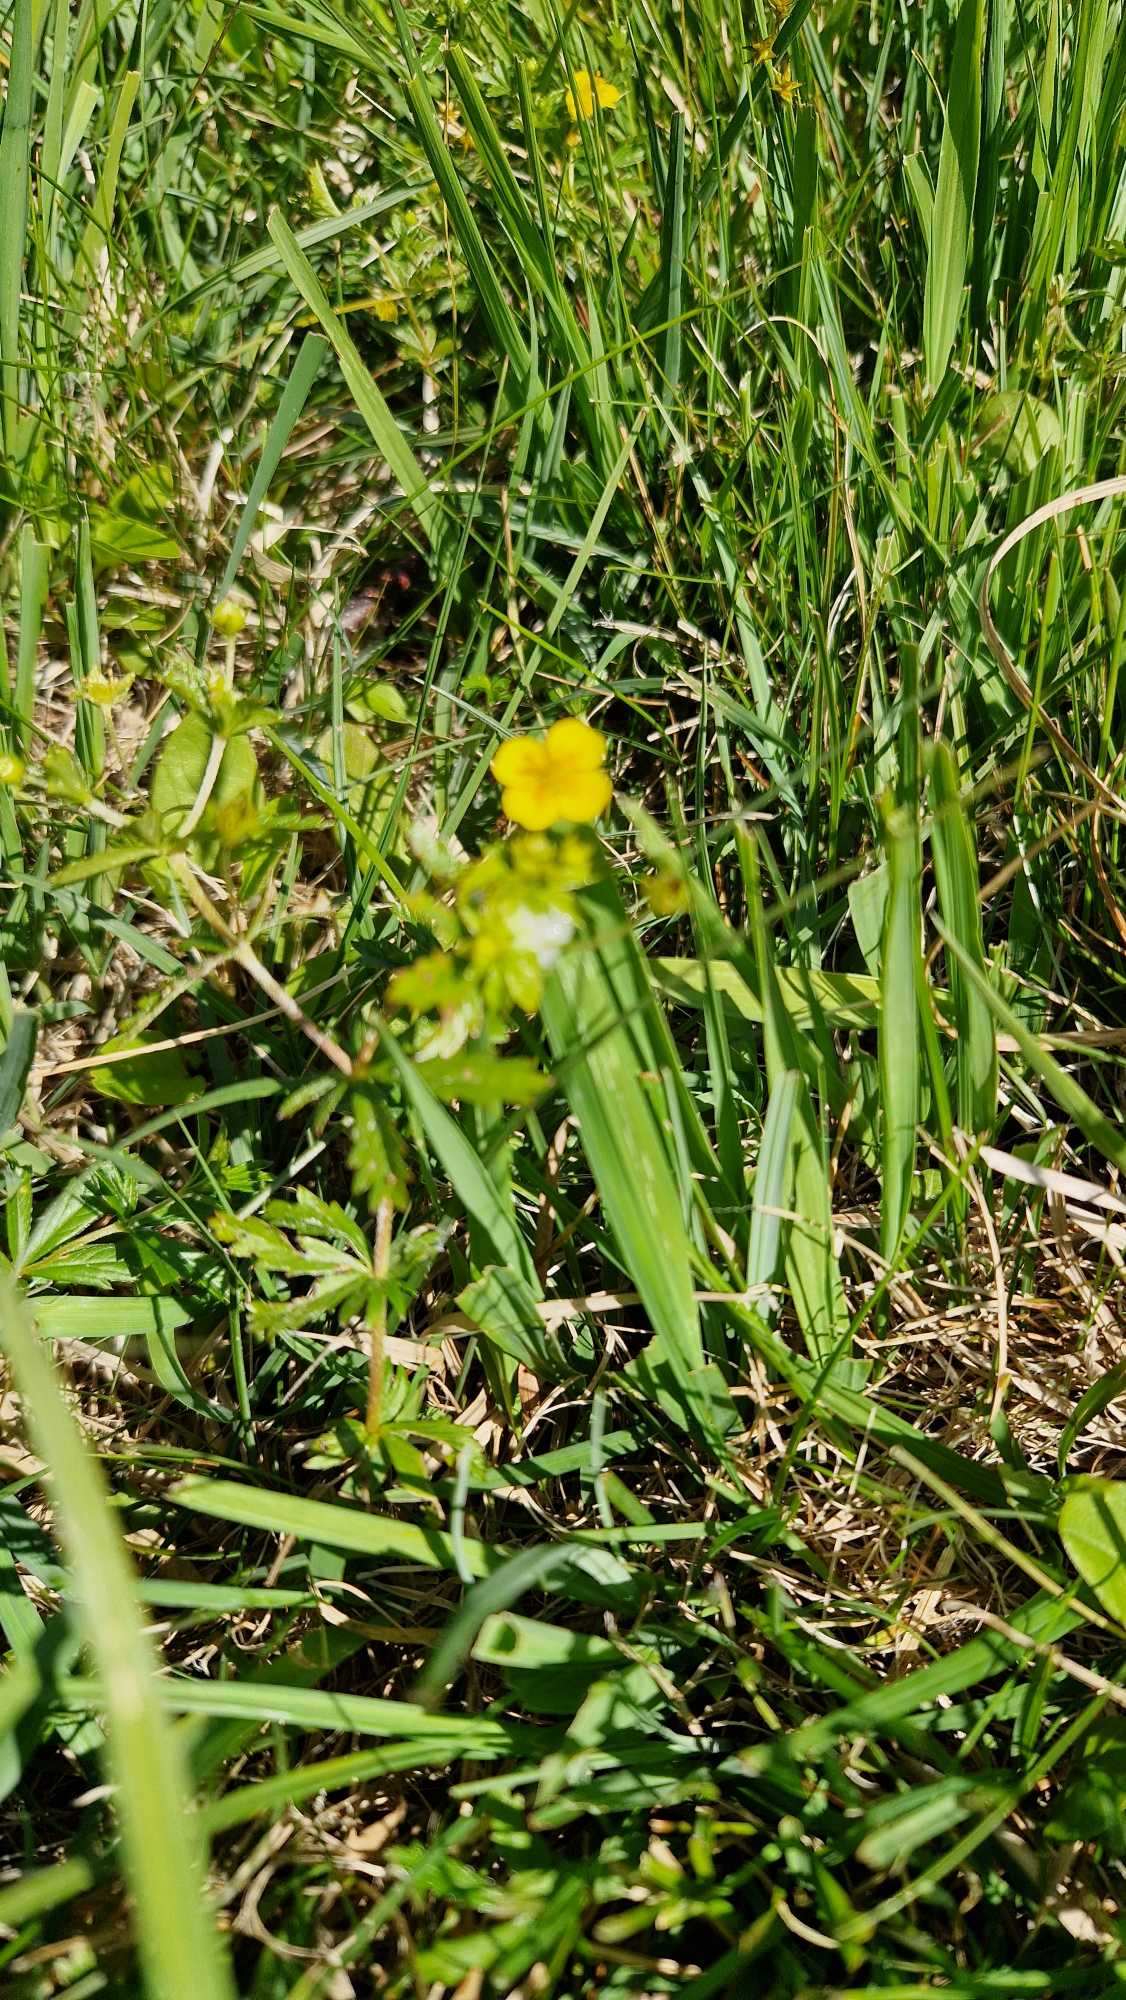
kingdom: Plantae
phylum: Tracheophyta
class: Magnoliopsida
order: Rosales
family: Rosaceae
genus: Potentilla
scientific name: Potentilla erecta
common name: Tormentil
